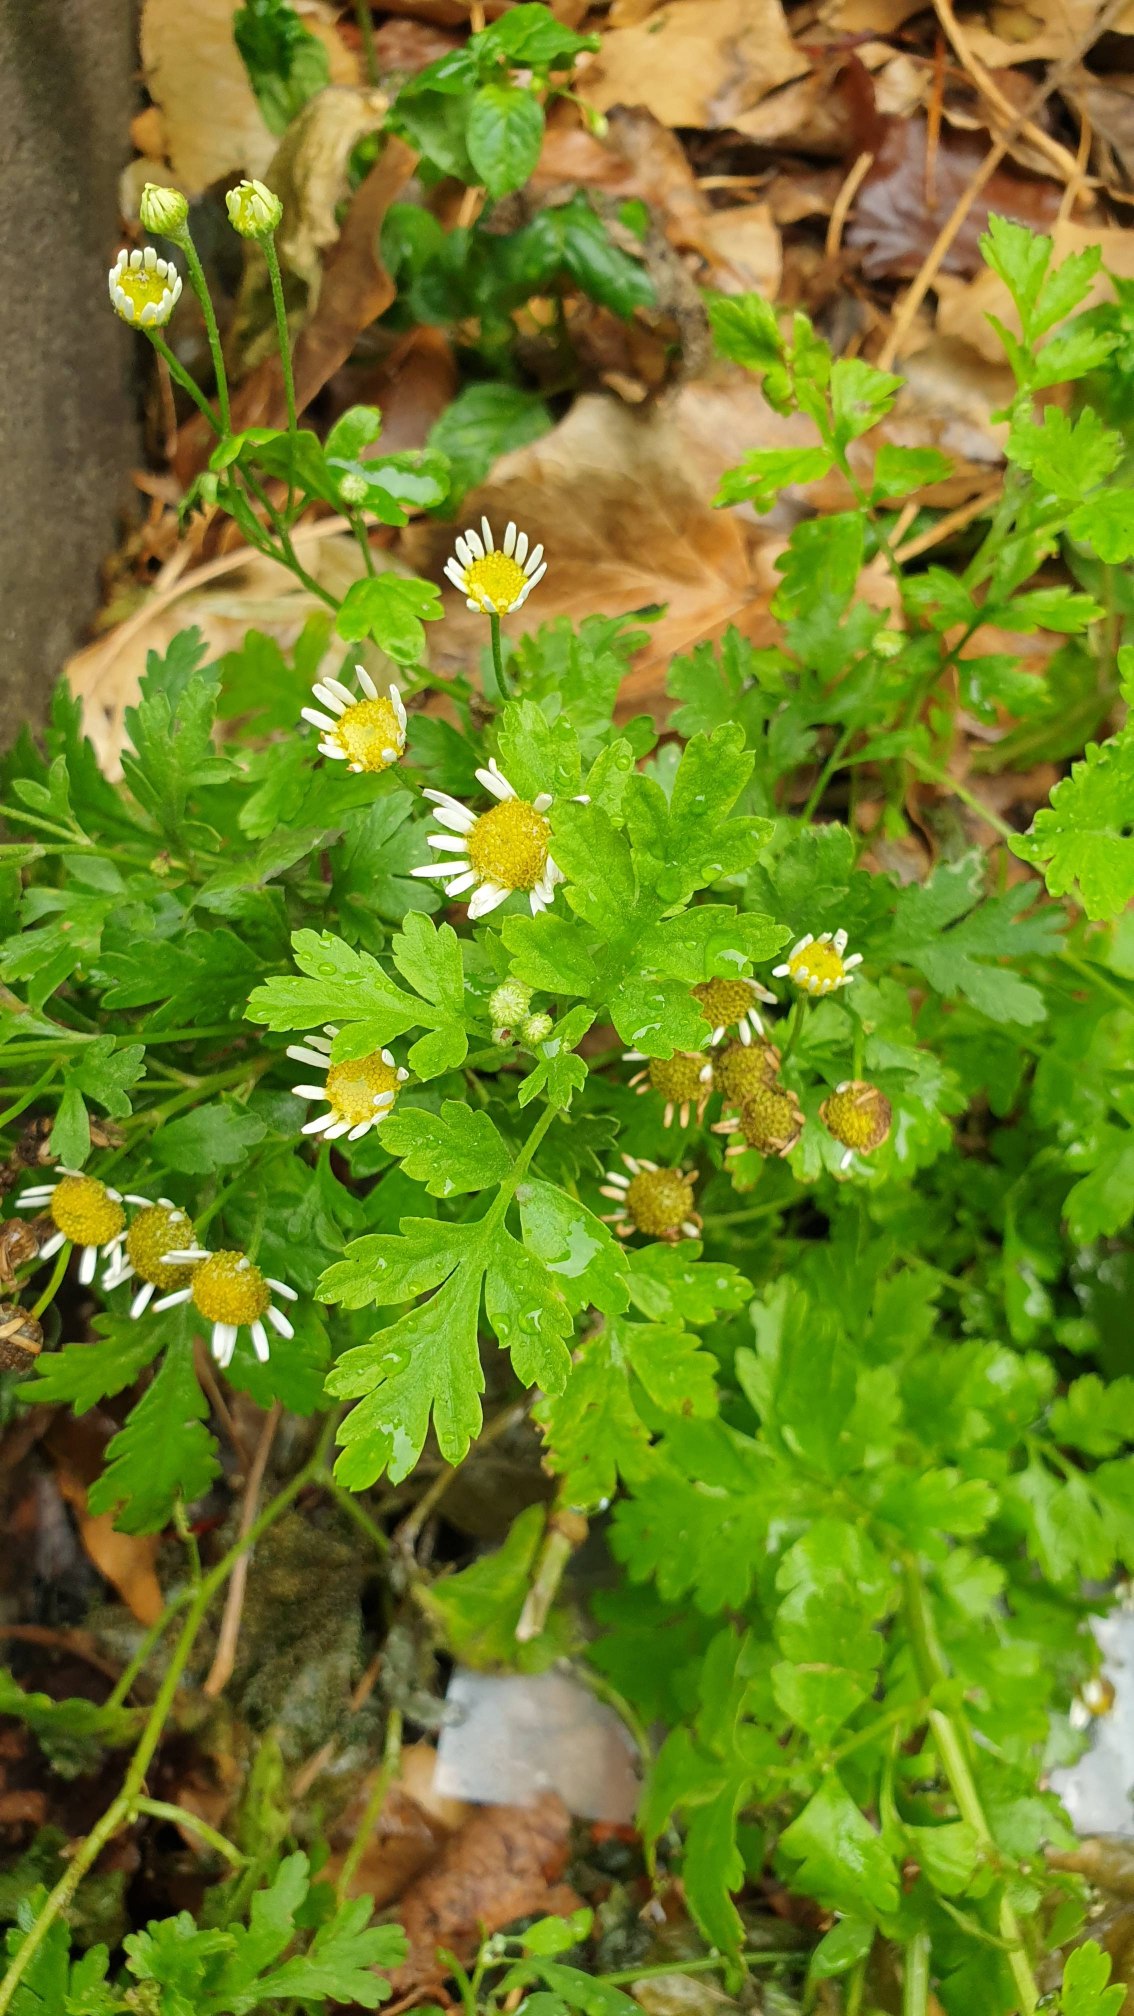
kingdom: Plantae
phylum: Tracheophyta
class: Magnoliopsida
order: Asterales
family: Asteraceae
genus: Tanacetum
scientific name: Tanacetum parthenium
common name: Matrem
